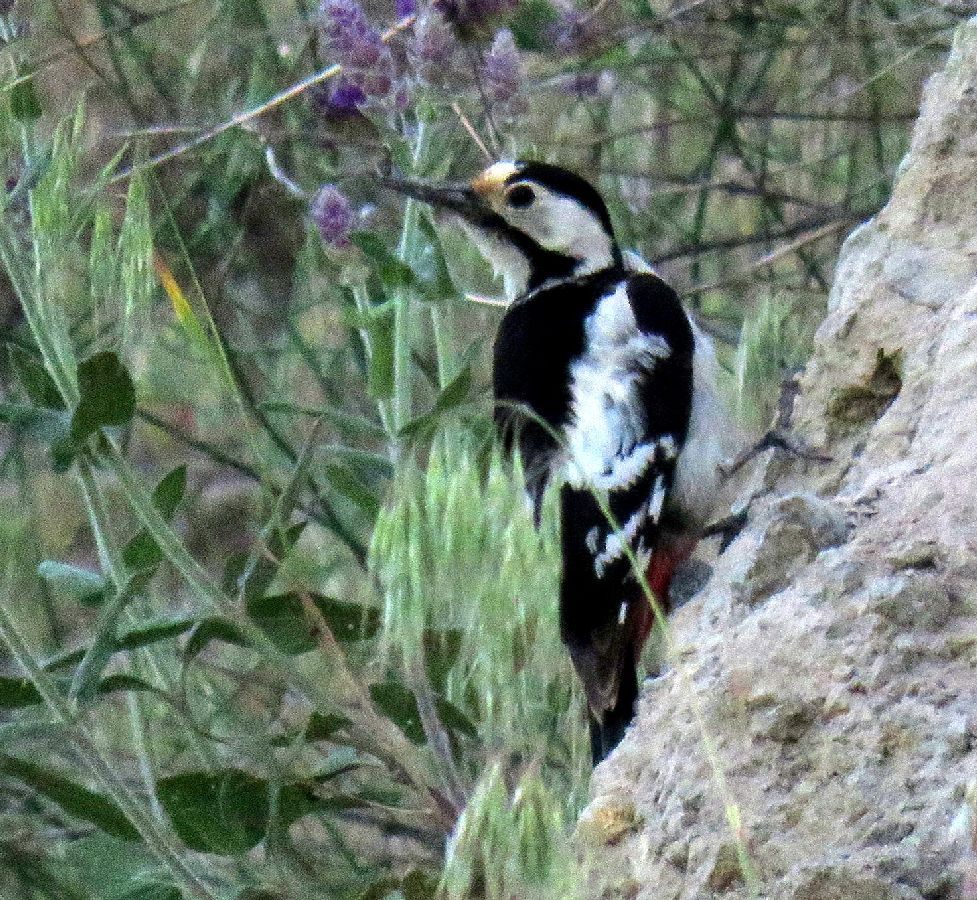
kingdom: Animalia
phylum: Chordata
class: Aves
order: Piciformes
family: Picidae
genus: Dendrocopos
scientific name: Dendrocopos syriacus
